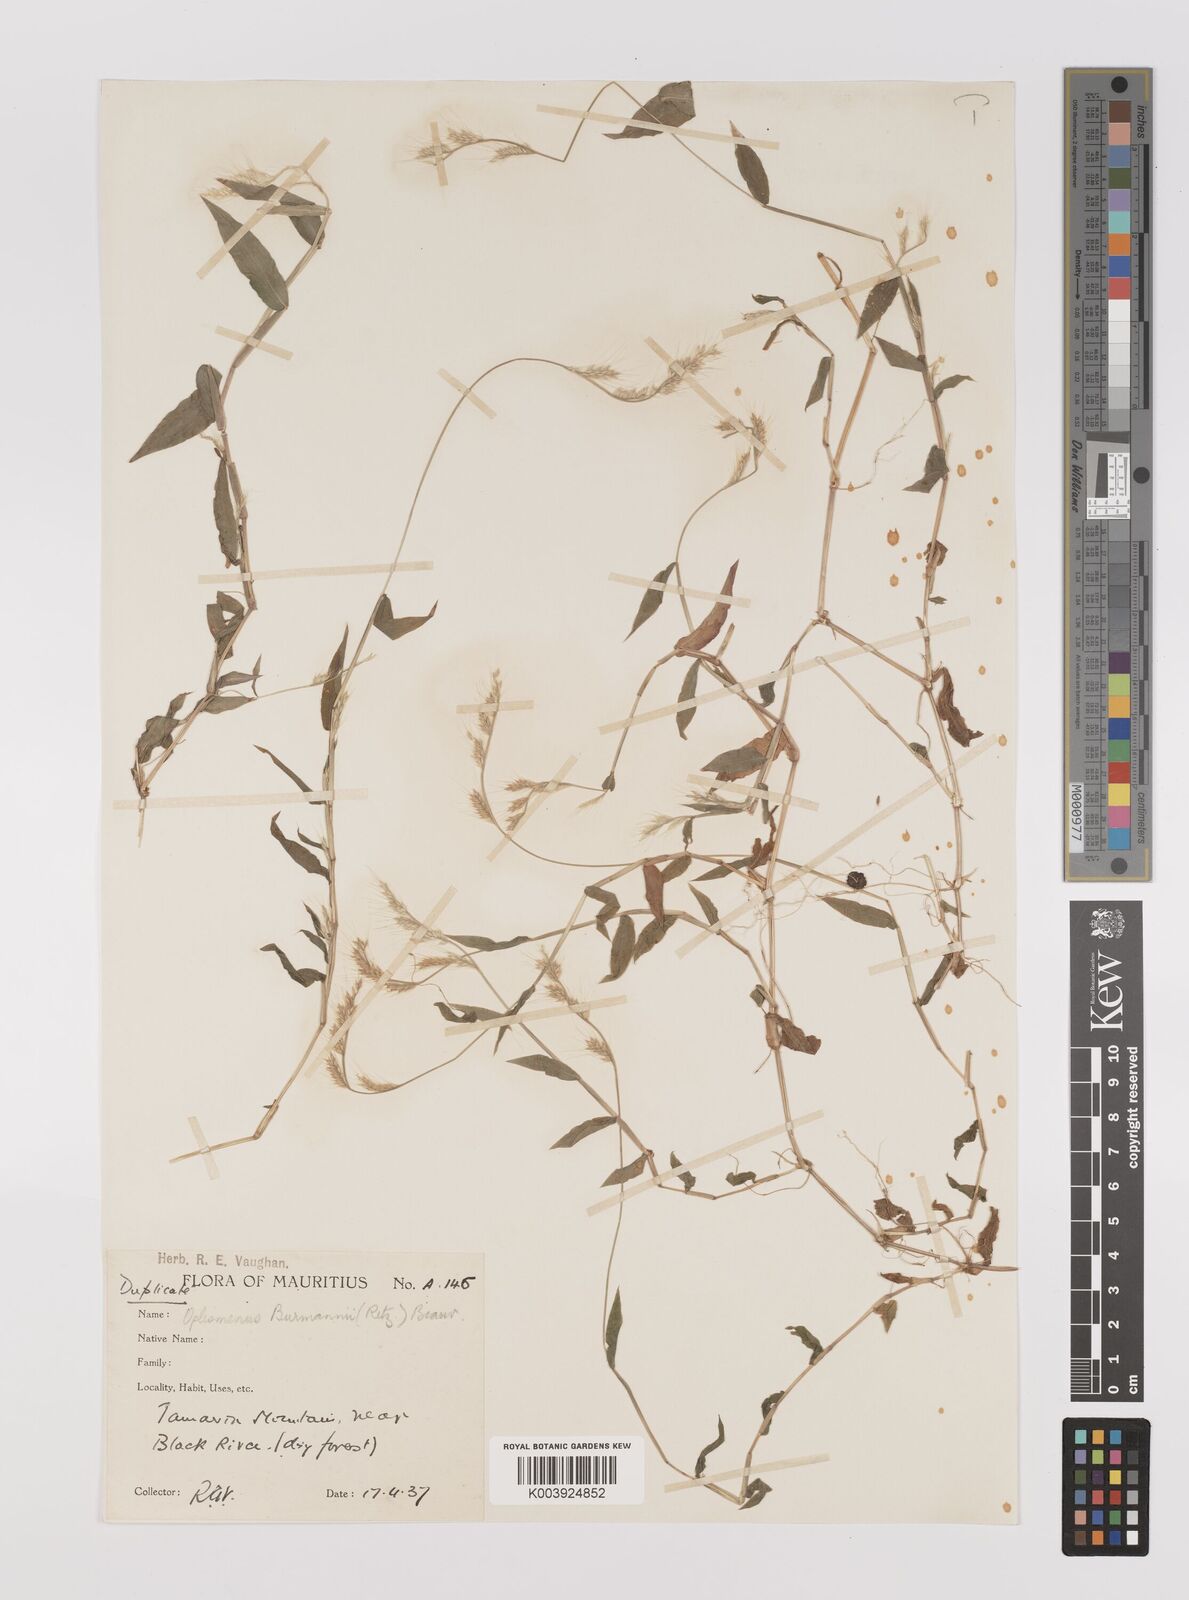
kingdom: Plantae
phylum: Tracheophyta
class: Liliopsida
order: Poales
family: Poaceae
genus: Oplismenus
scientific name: Oplismenus burmanni
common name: Burmann's basketgrass
